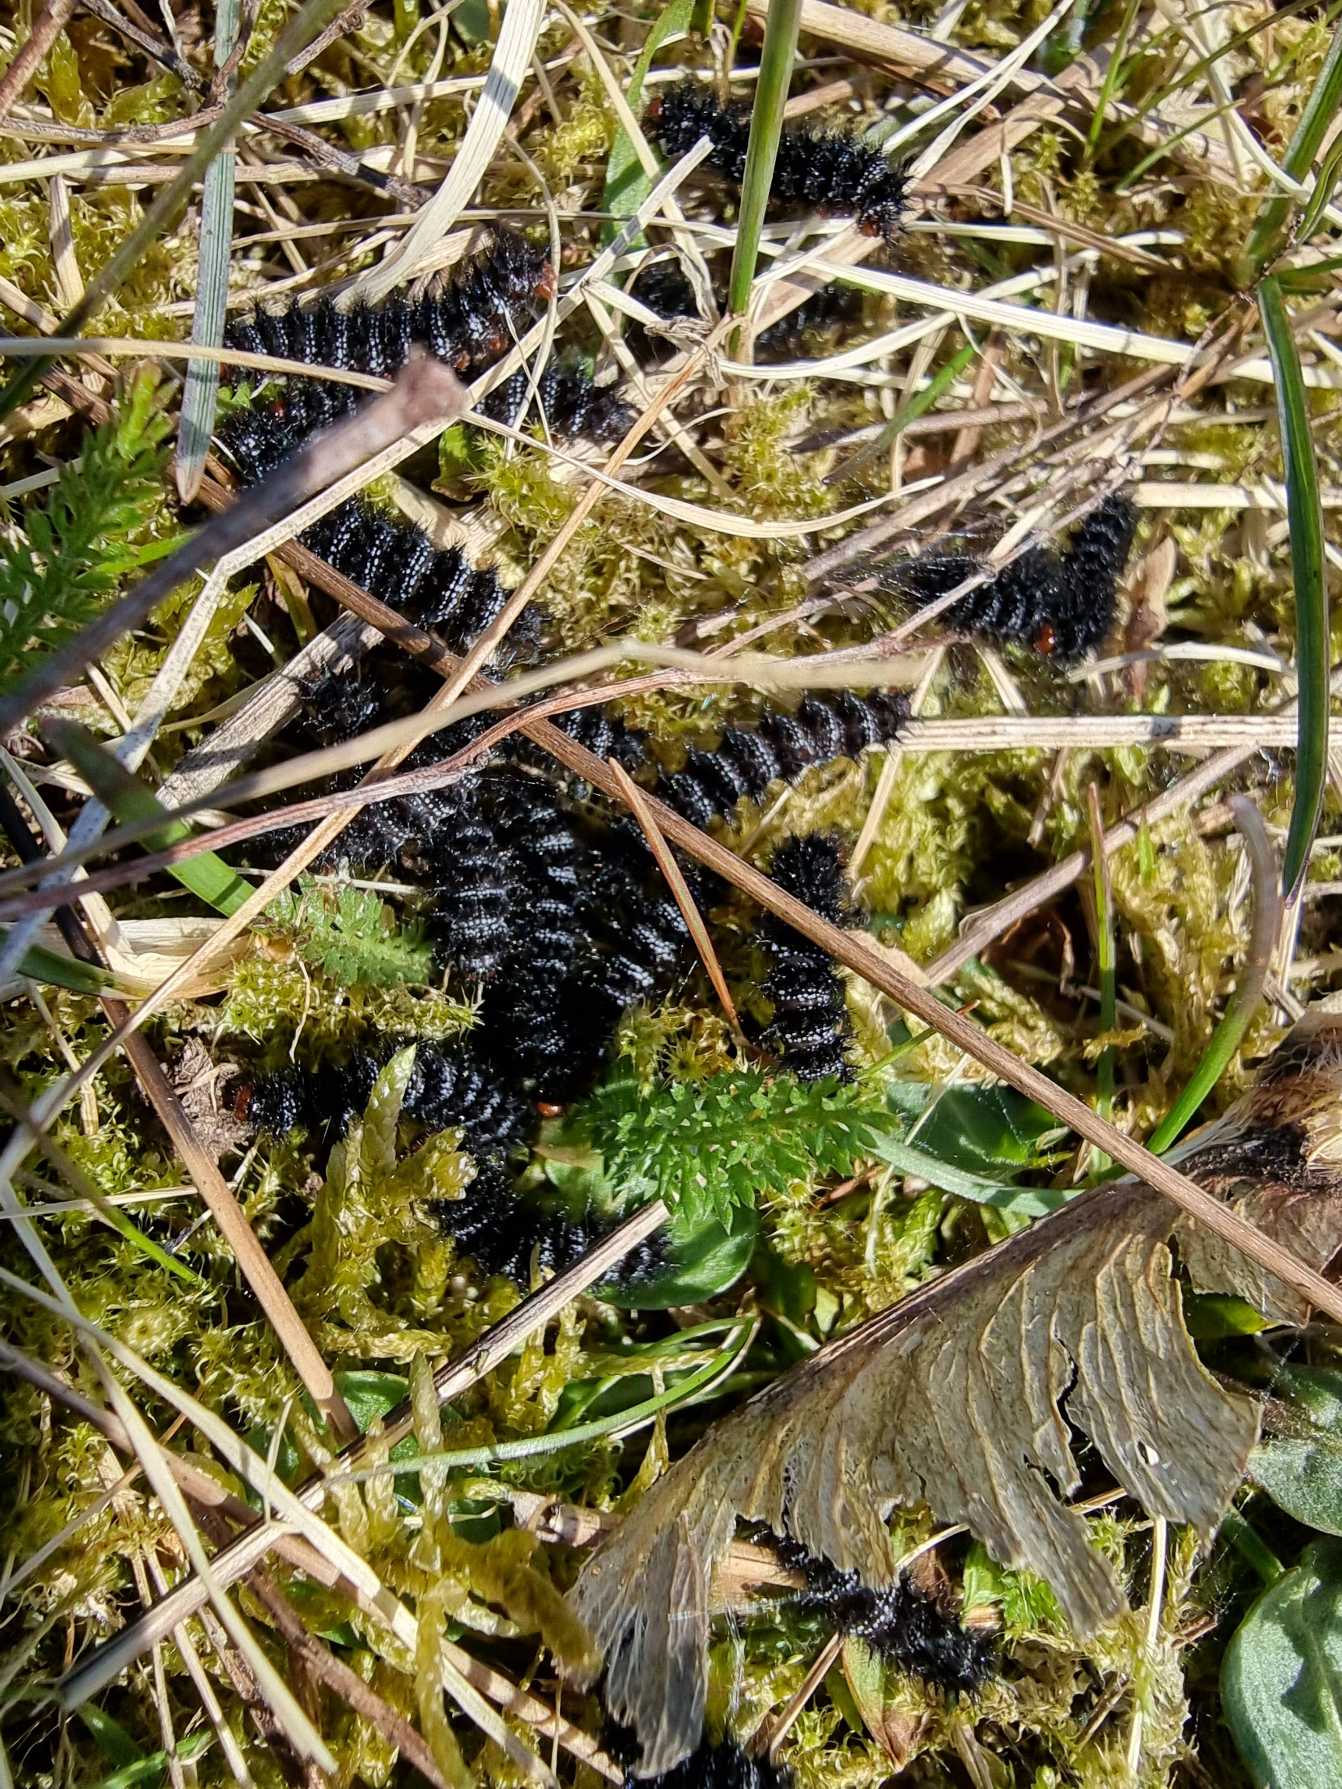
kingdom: Animalia
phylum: Arthropoda
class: Insecta
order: Lepidoptera
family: Nymphalidae
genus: Melitaea
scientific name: Melitaea cinxia
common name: Okkergul pletvinge
